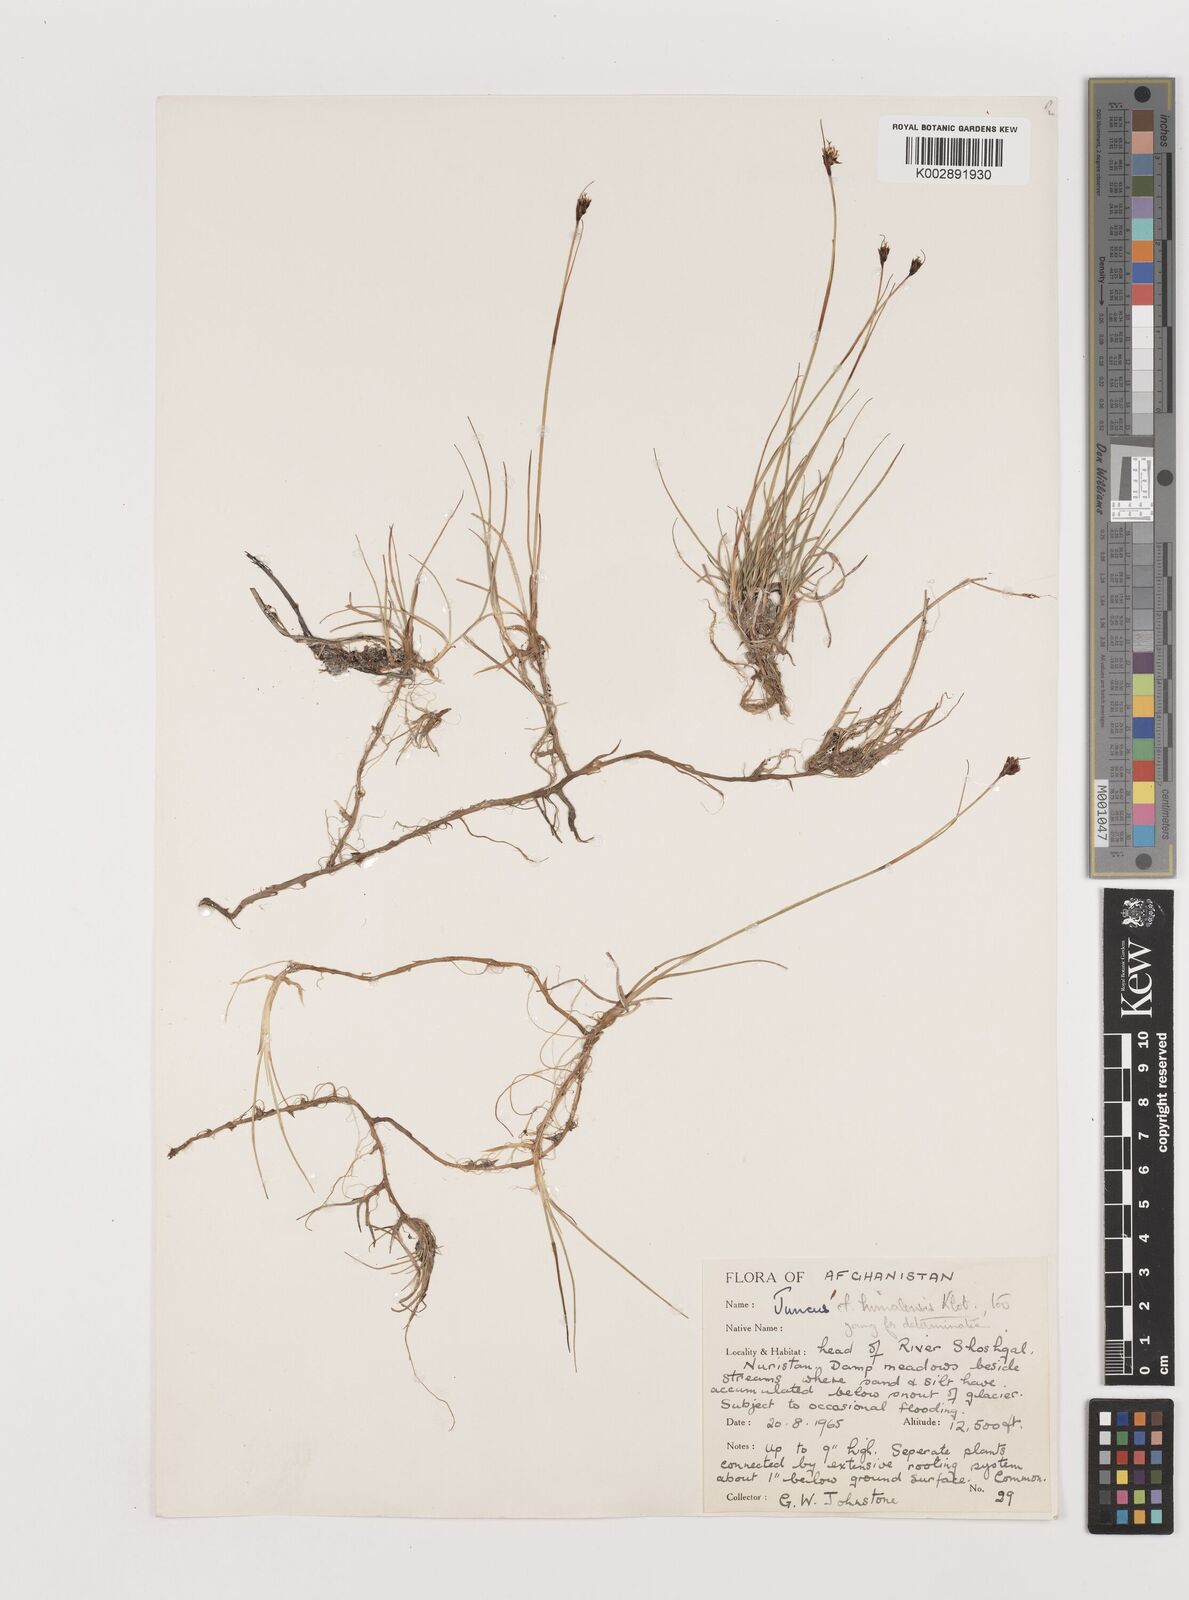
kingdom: Plantae
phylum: Tracheophyta
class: Liliopsida
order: Poales
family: Juncaceae
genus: Juncus
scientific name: Juncus
